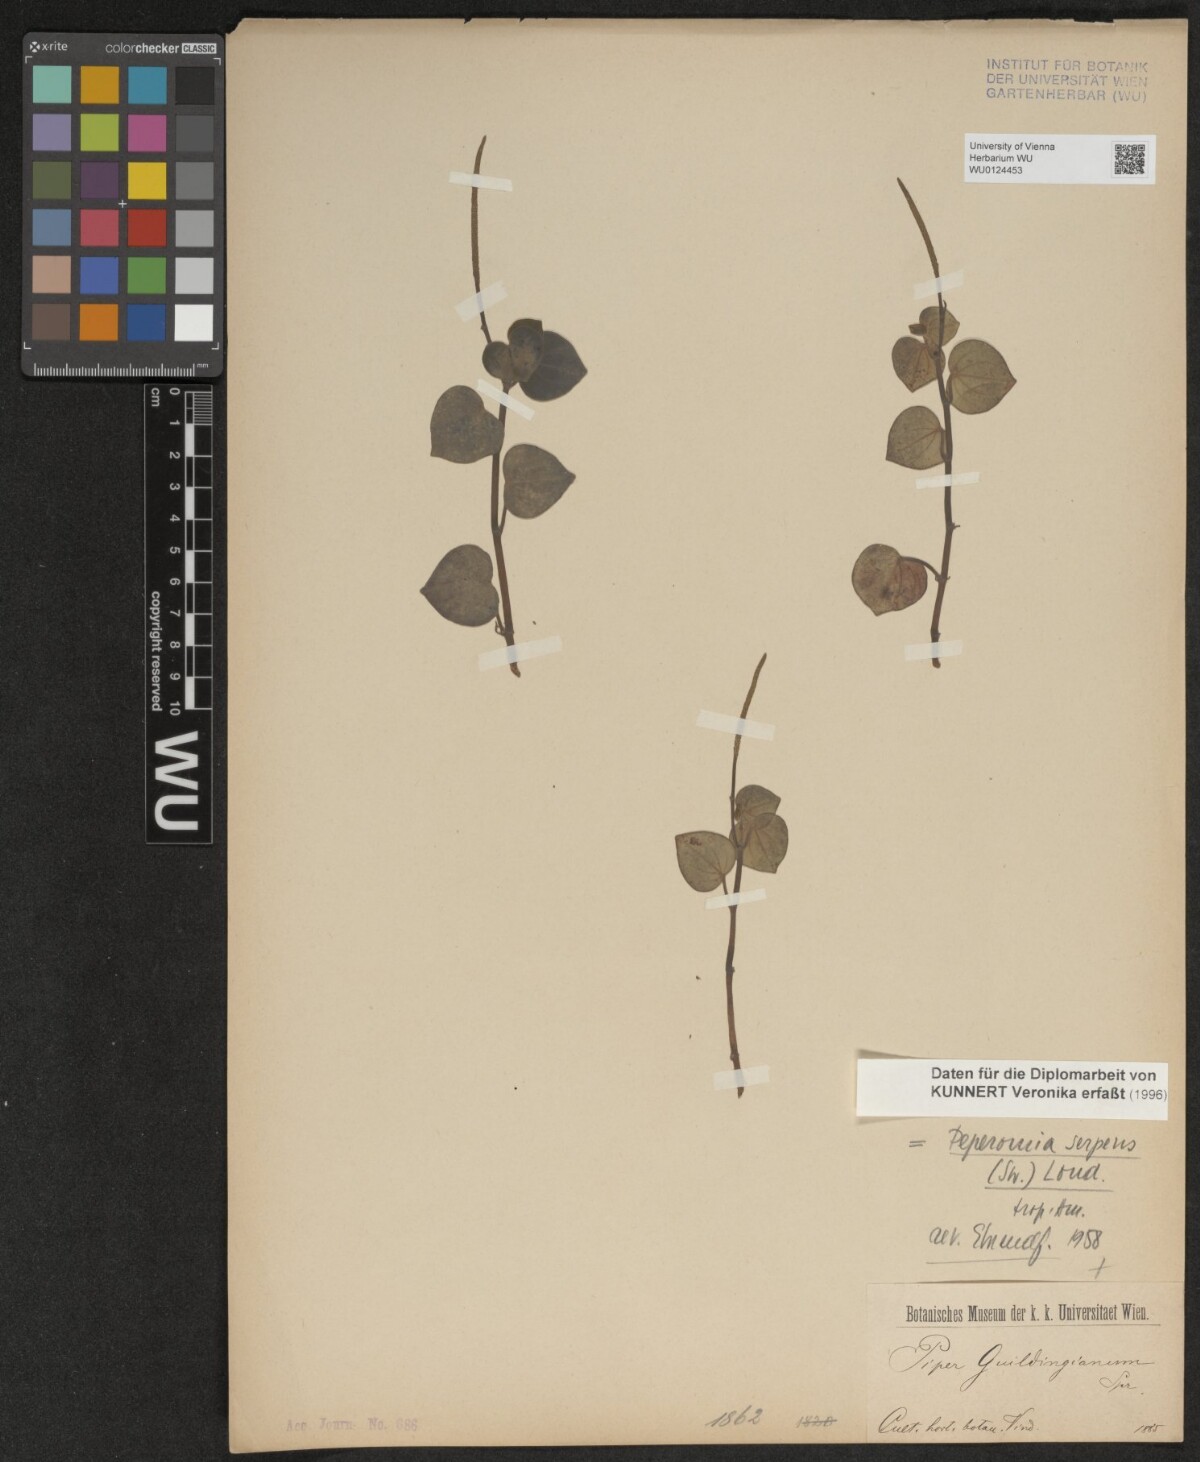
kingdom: Plantae
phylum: Tracheophyta
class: Magnoliopsida
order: Piperales
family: Piperaceae
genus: Peperomia
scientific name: Peperomia serpens
